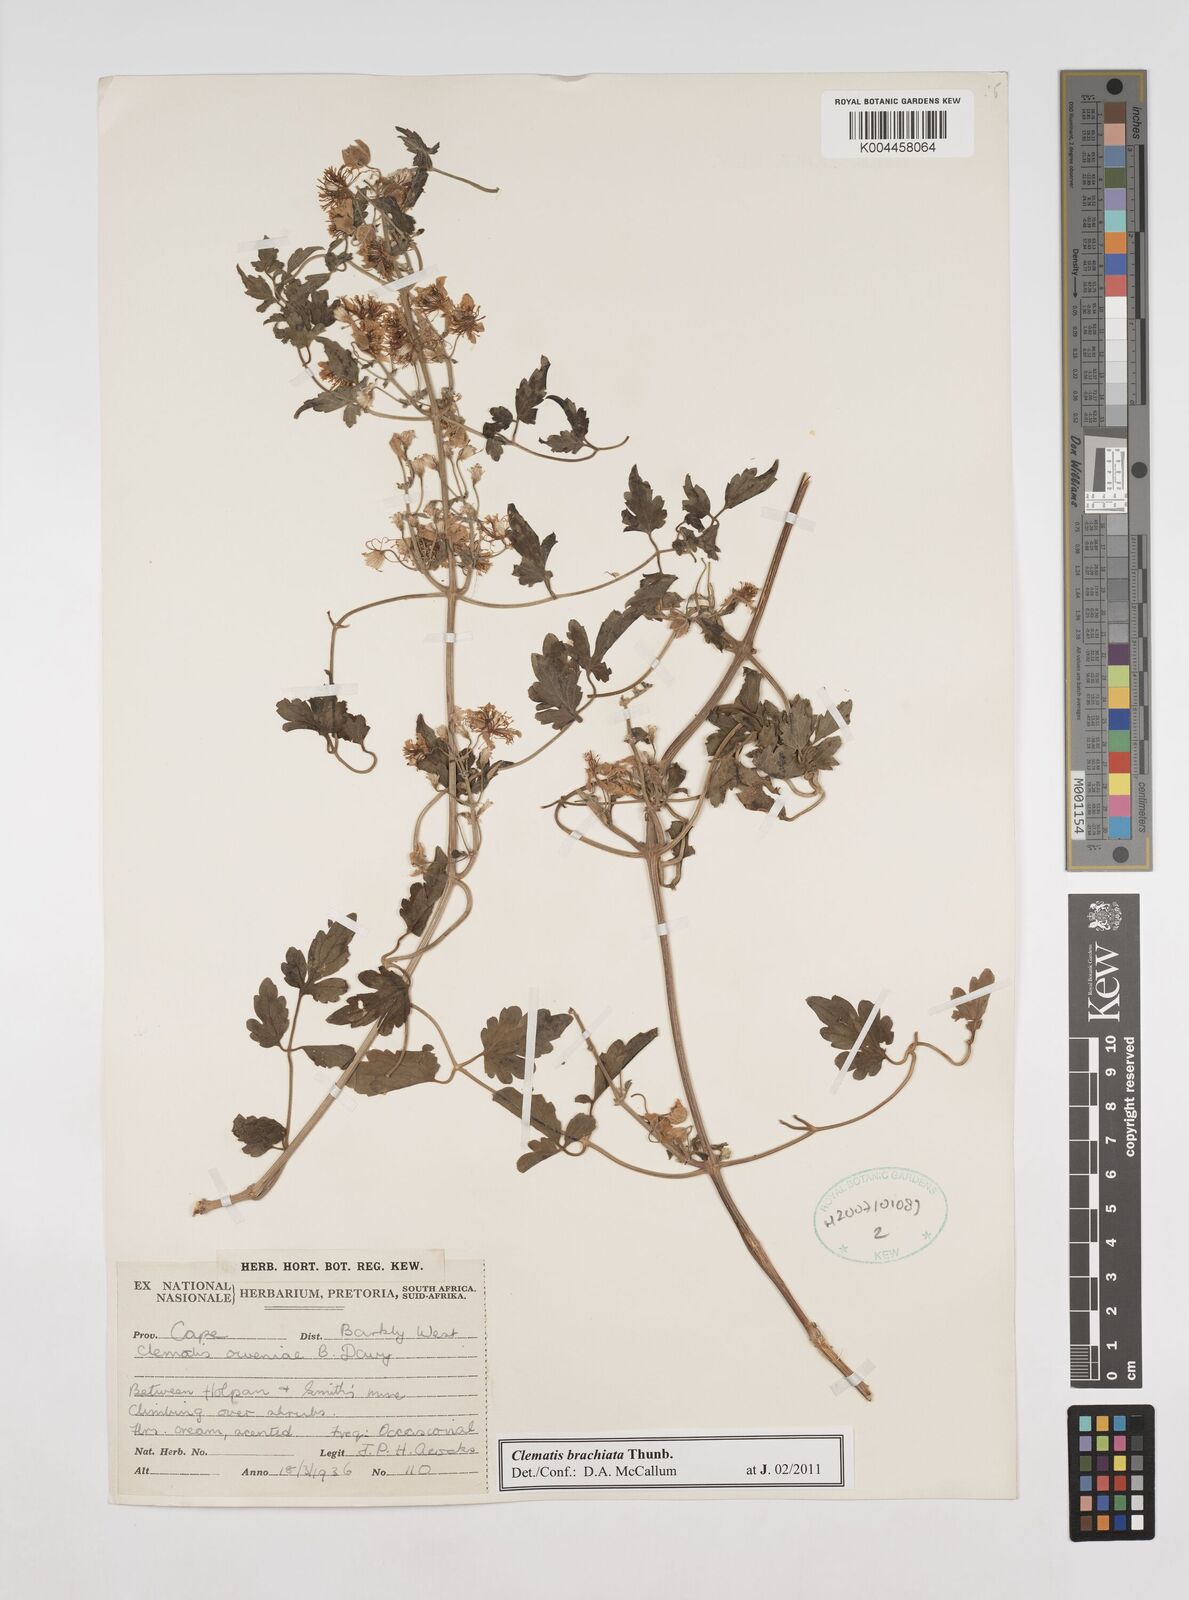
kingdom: Plantae
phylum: Tracheophyta
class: Magnoliopsida
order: Ranunculales
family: Ranunculaceae
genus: Clematis
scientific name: Clematis brachiata
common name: Traveler's-joy
